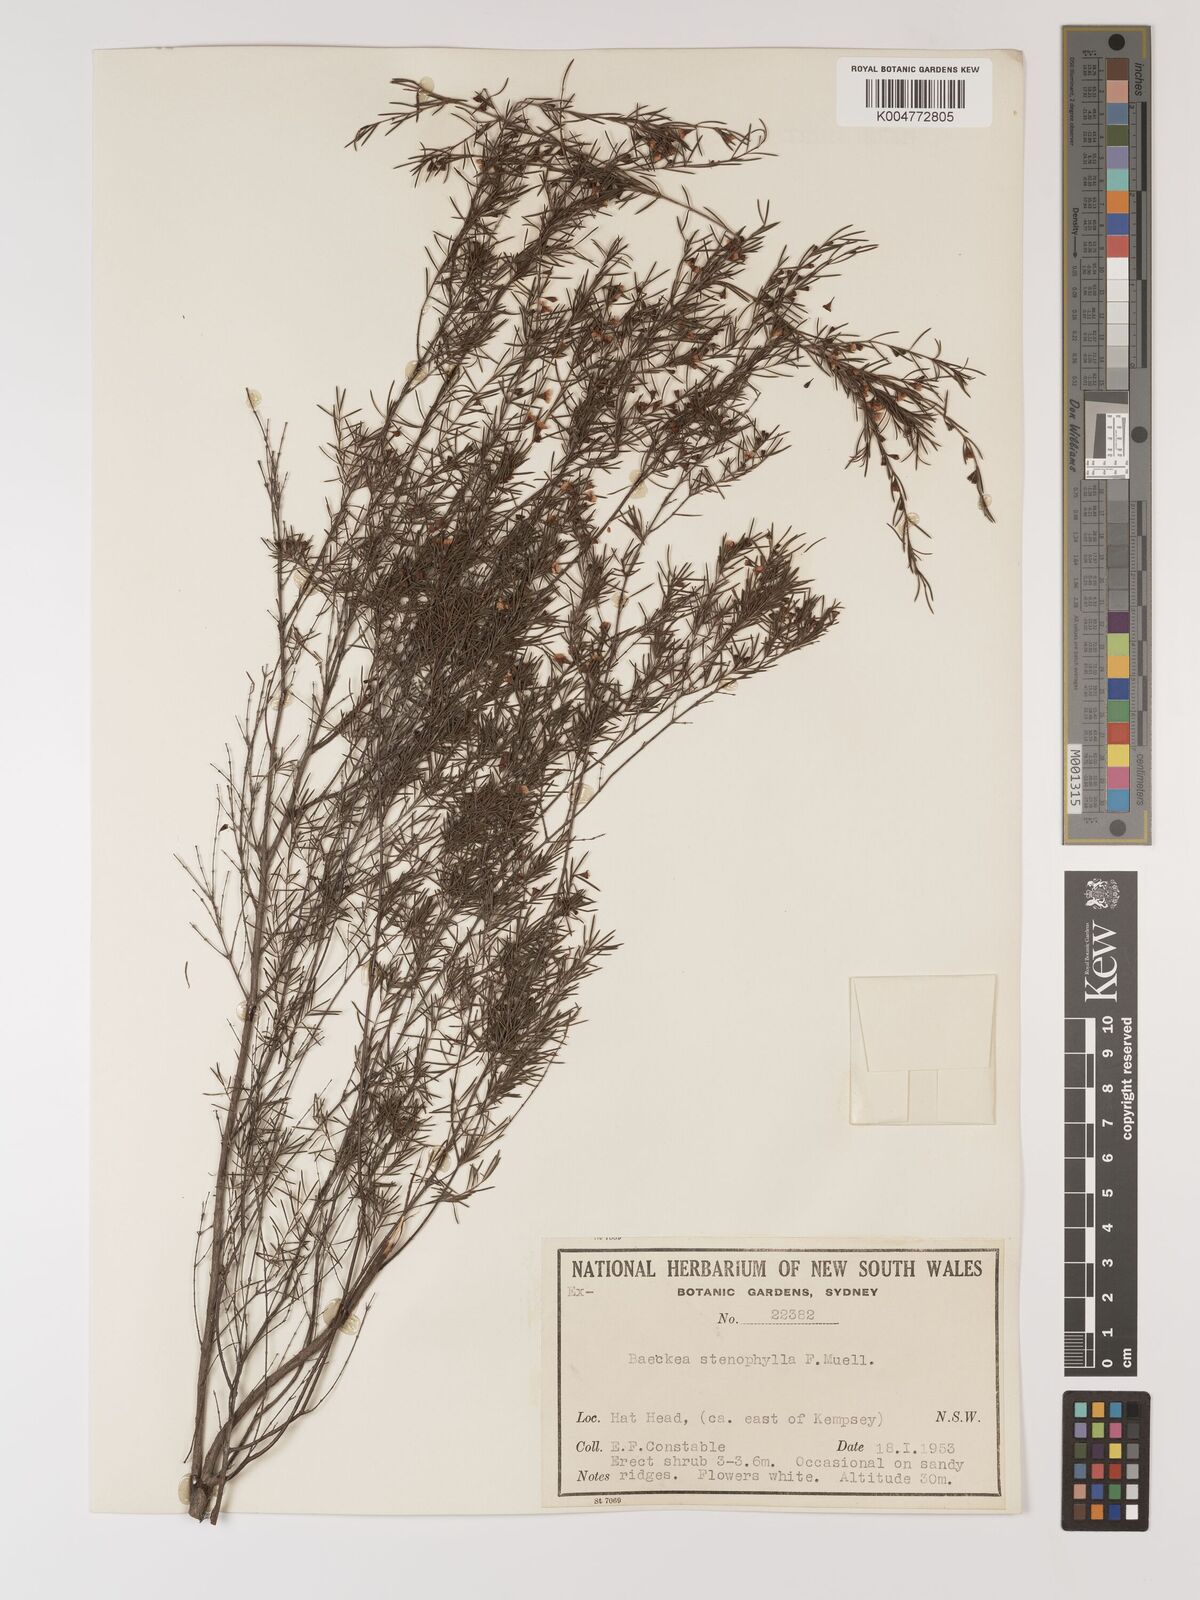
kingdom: Plantae
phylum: Tracheophyta
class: Magnoliopsida
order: Myrtales
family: Myrtaceae
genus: Baeckea
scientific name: Baeckea frutescens
